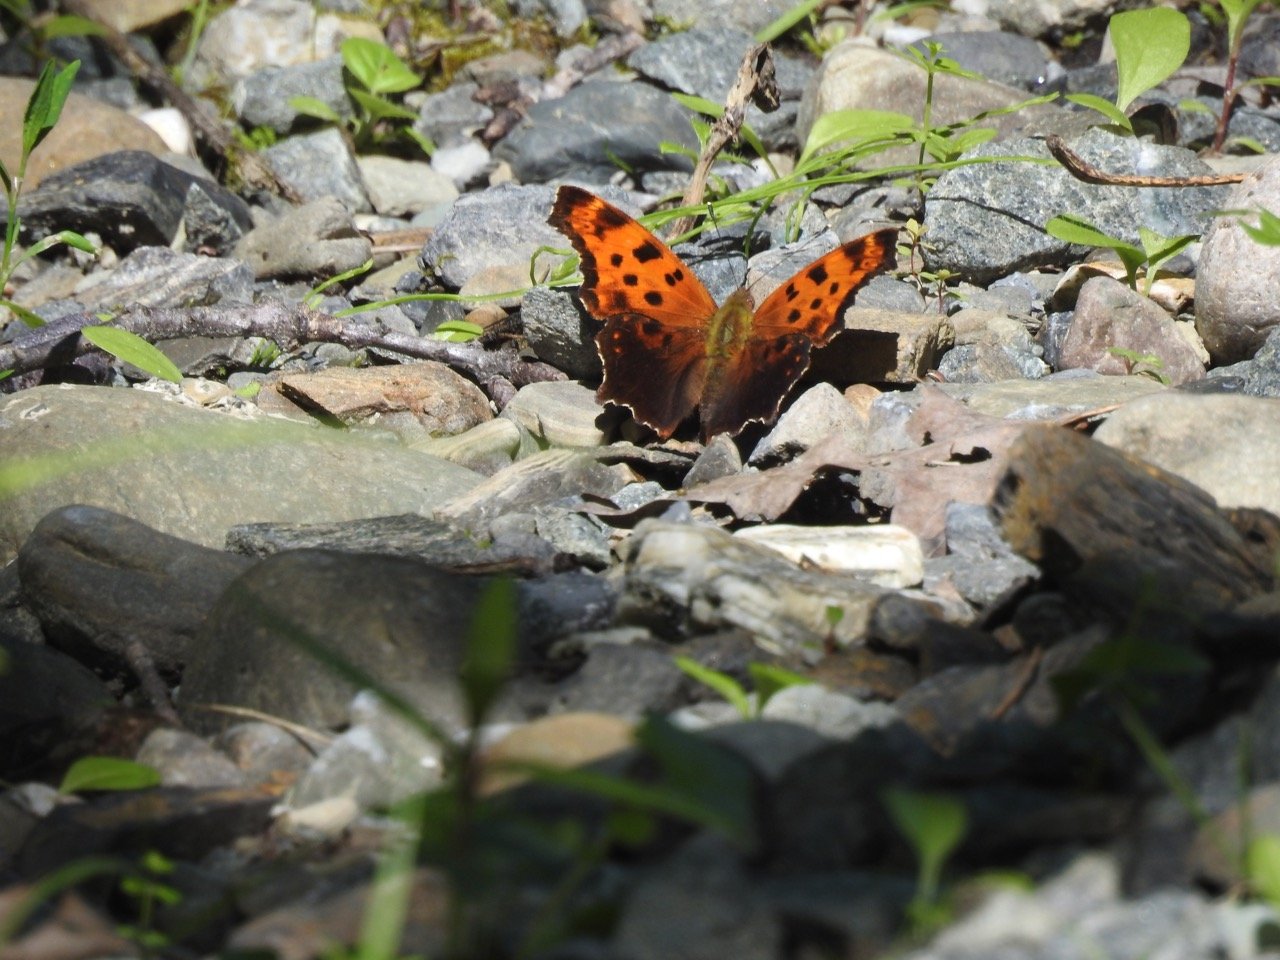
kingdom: Animalia
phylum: Arthropoda
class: Insecta
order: Lepidoptera
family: Nymphalidae
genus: Polygonia
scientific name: Polygonia comma
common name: Eastern Comma
